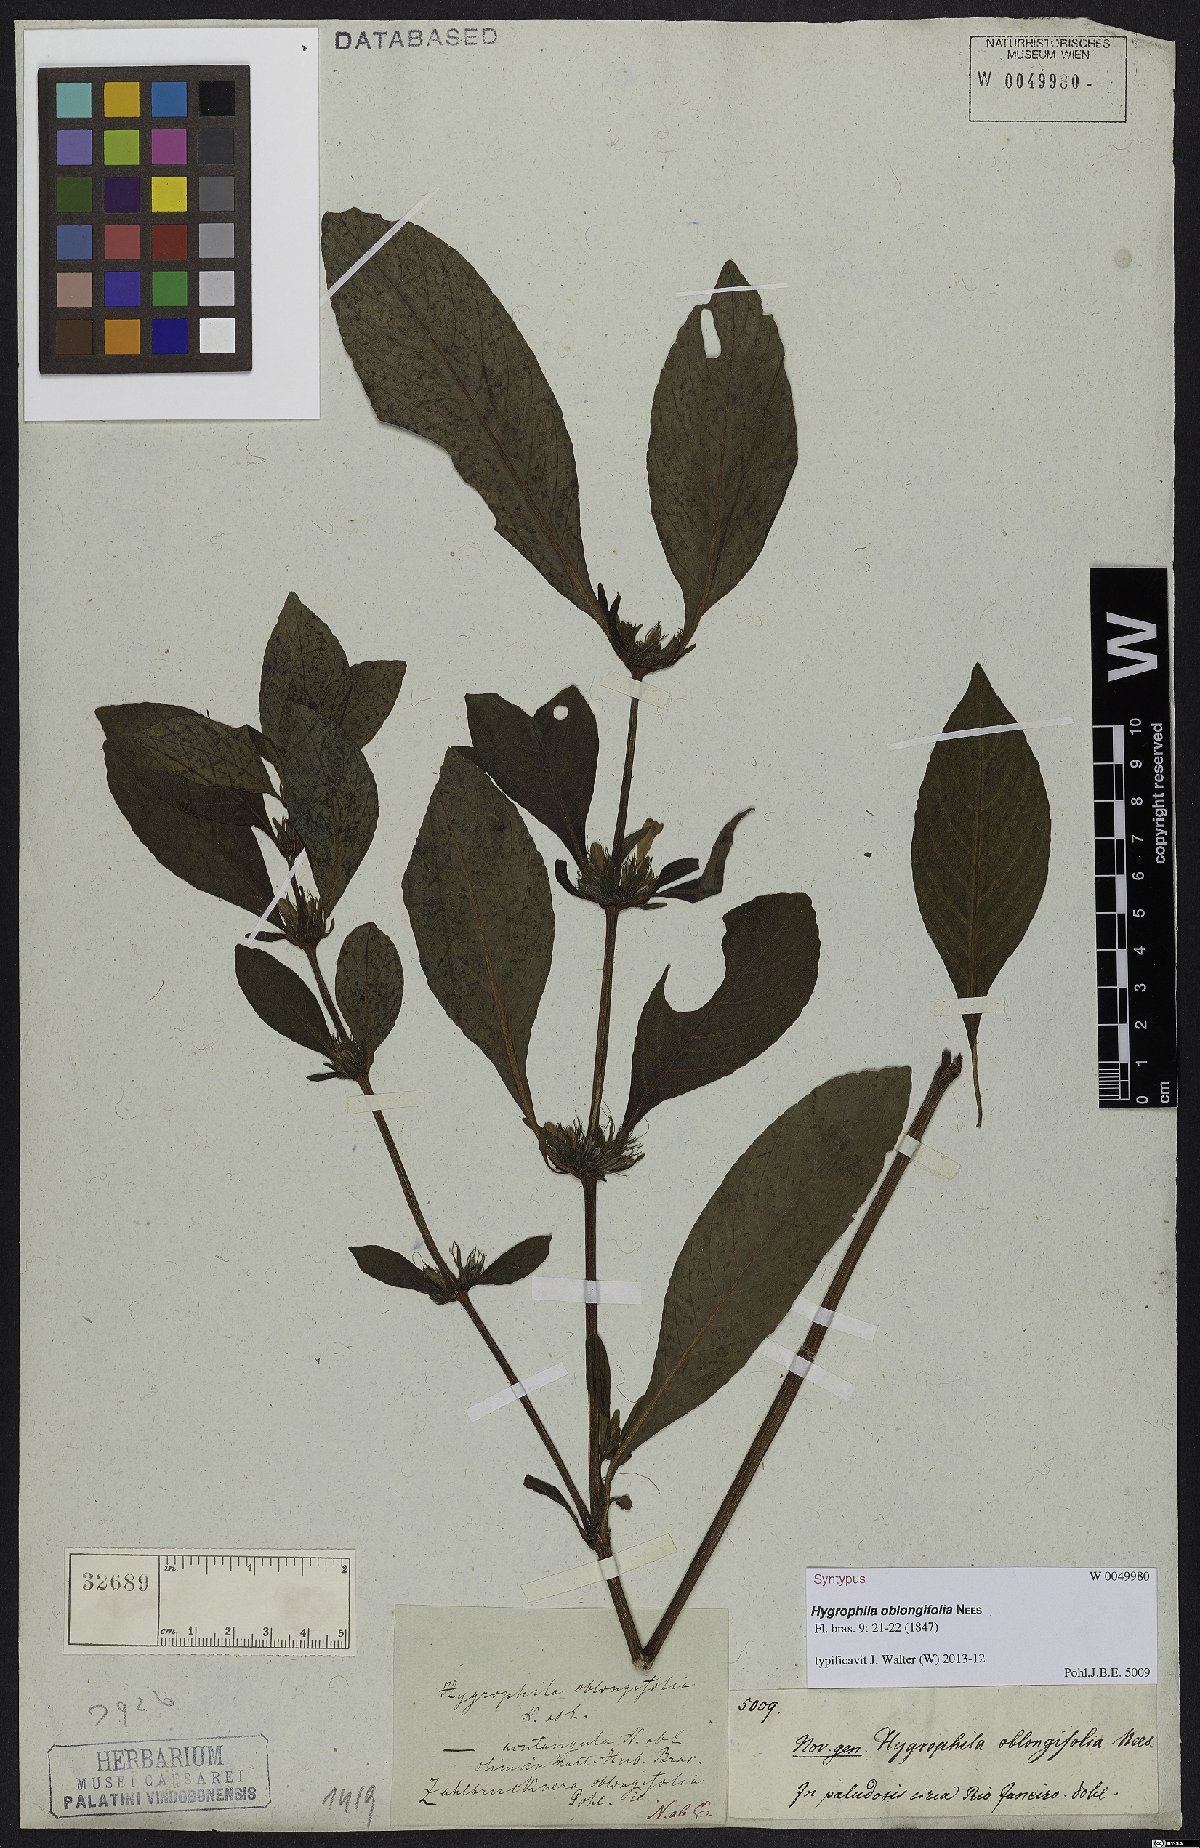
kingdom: Plantae
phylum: Tracheophyta
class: Magnoliopsida
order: Lamiales
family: Acanthaceae
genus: Hygrophila
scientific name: Hygrophila acutangula
